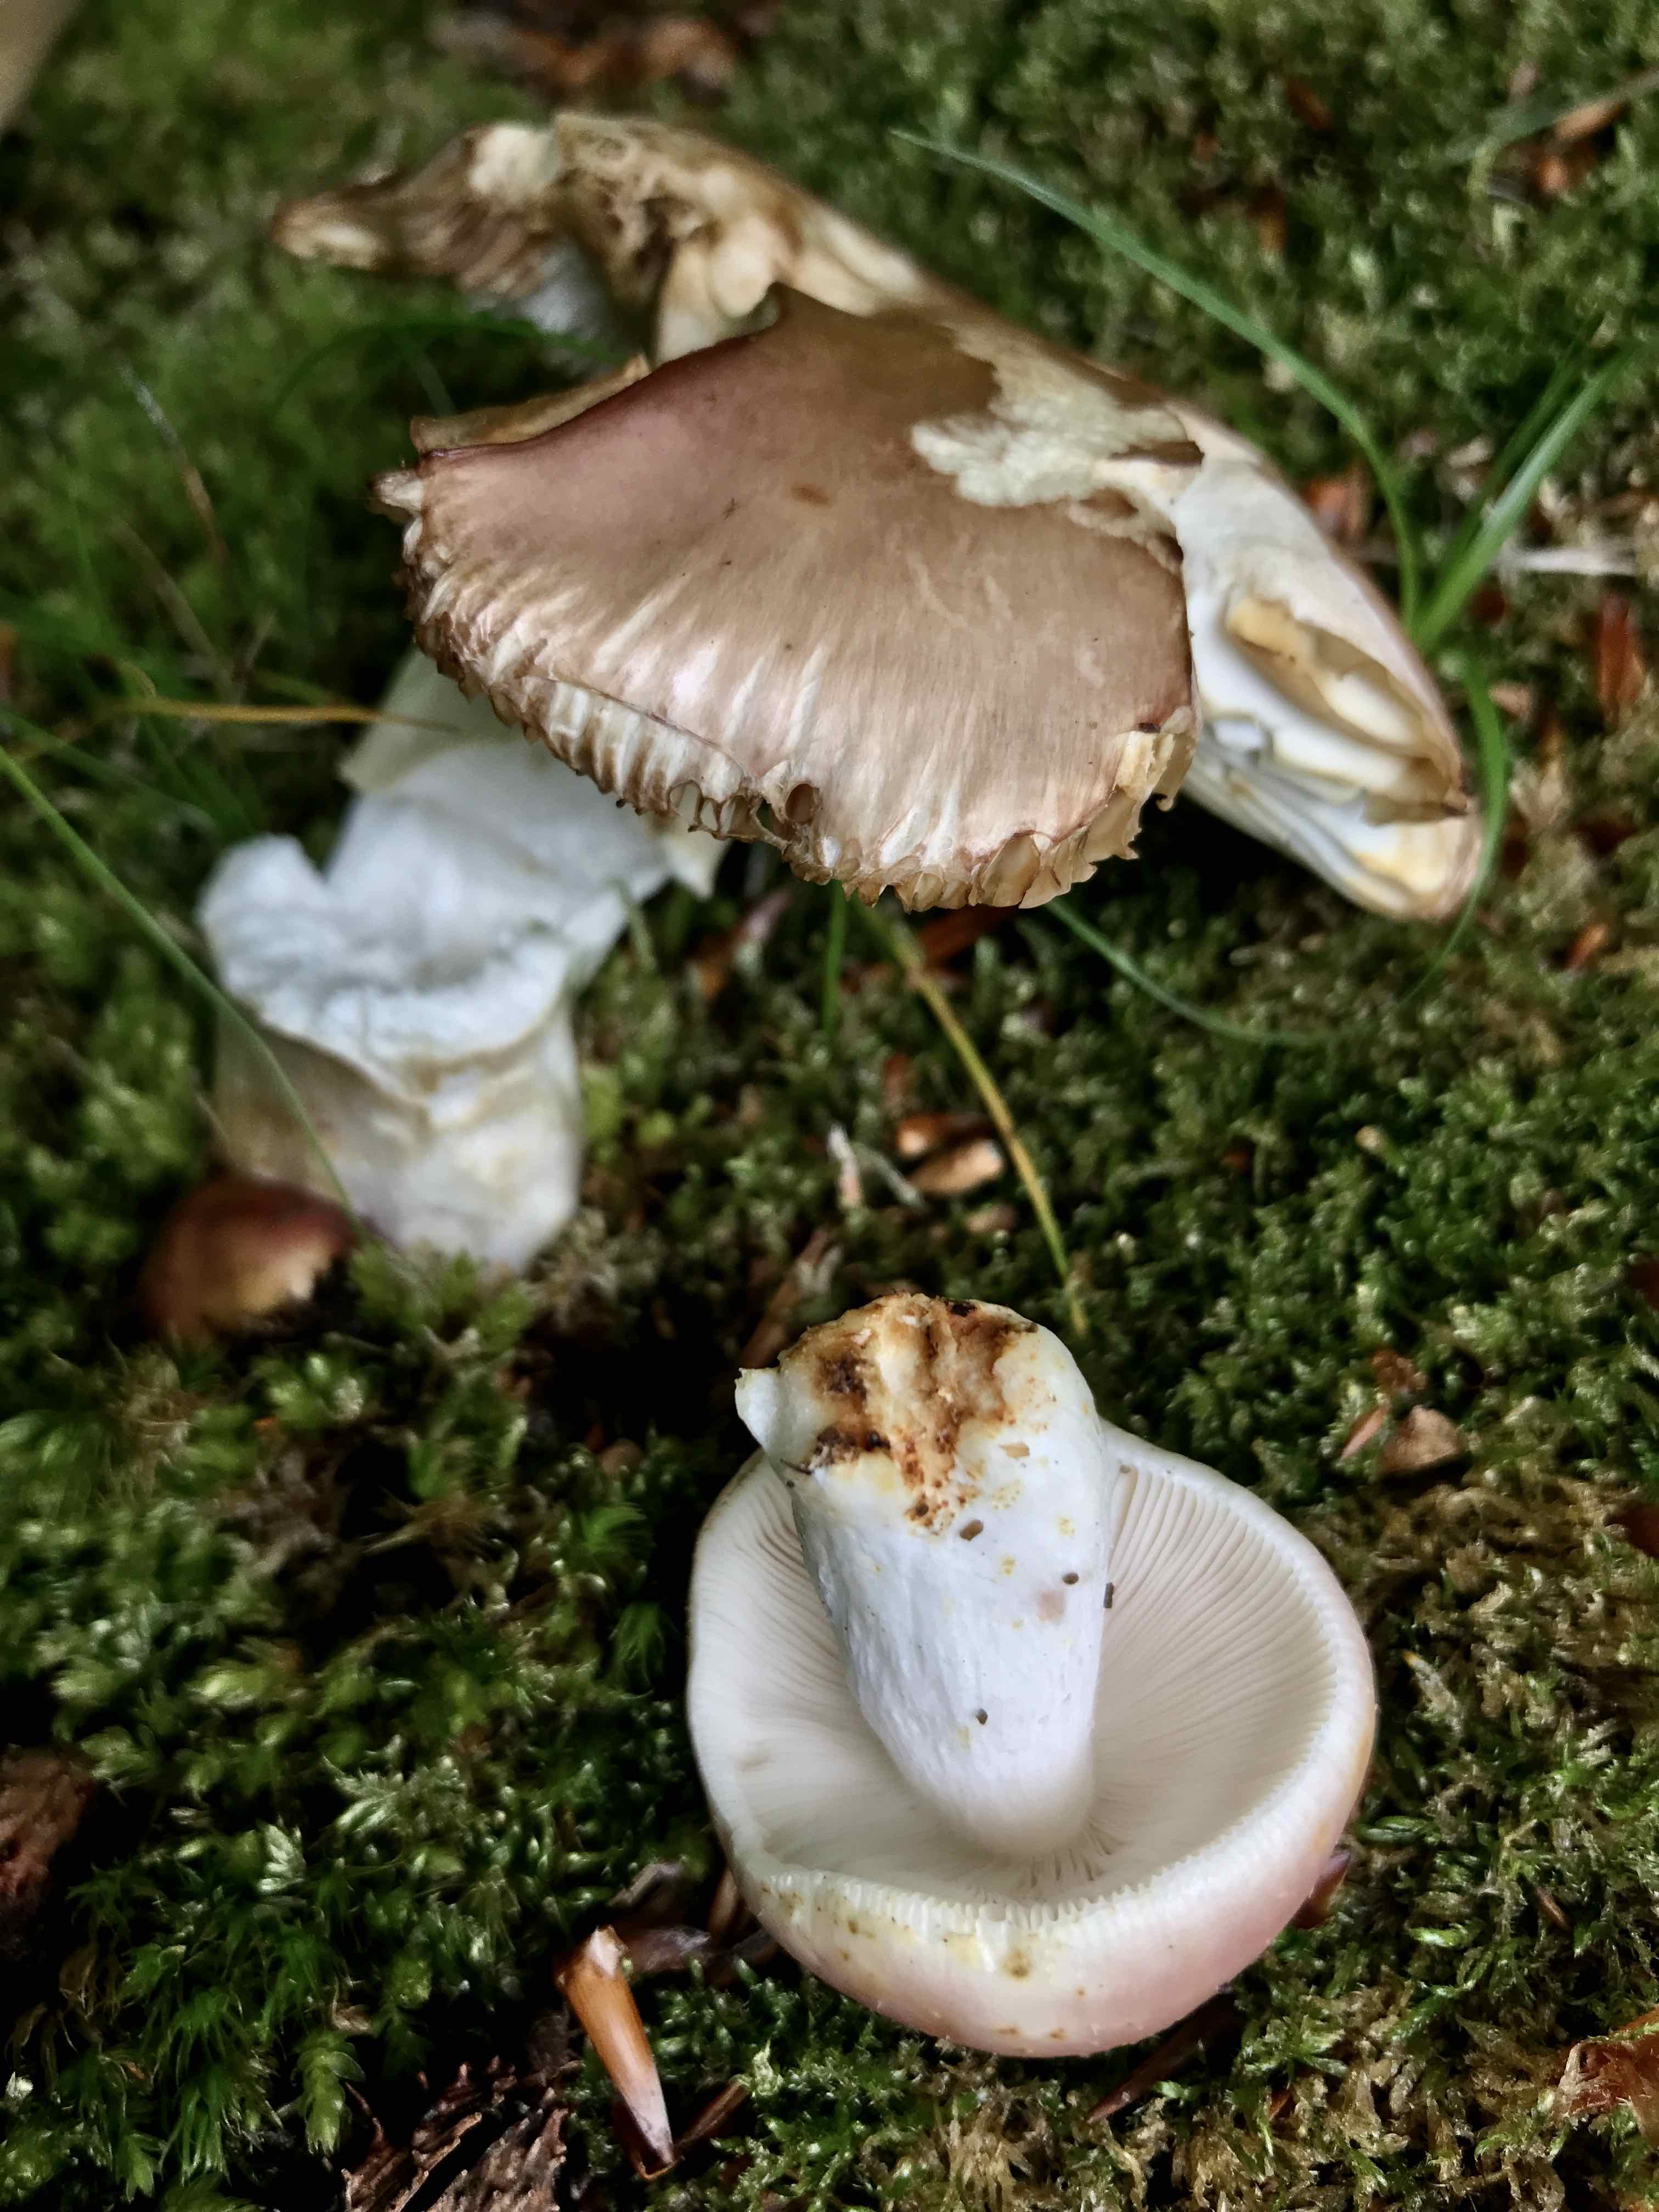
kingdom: Fungi
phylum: Basidiomycota
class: Agaricomycetes
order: Russulales
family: Russulaceae
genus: Russula
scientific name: Russula vesca
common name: spiselig skørhat
